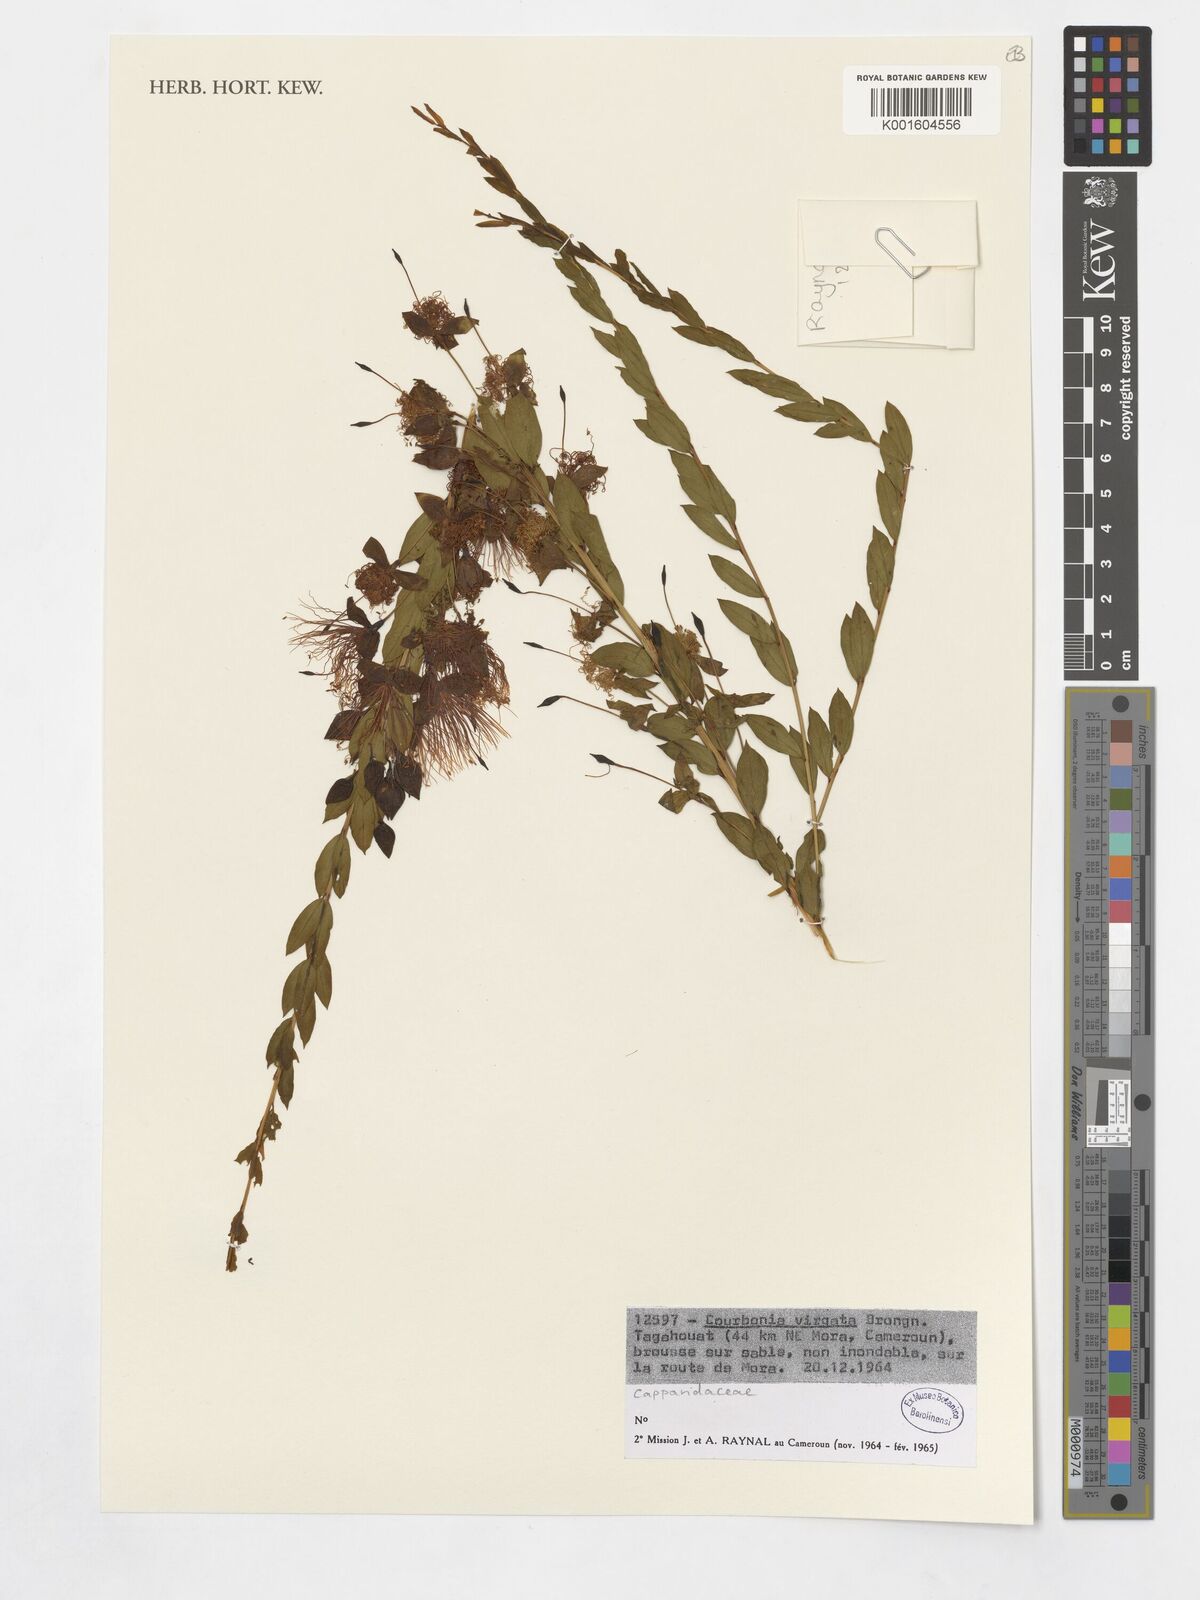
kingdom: Plantae
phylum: Tracheophyta
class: Magnoliopsida
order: Brassicales
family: Capparaceae
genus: Maerua
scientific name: Maerua pseudopetalosa
